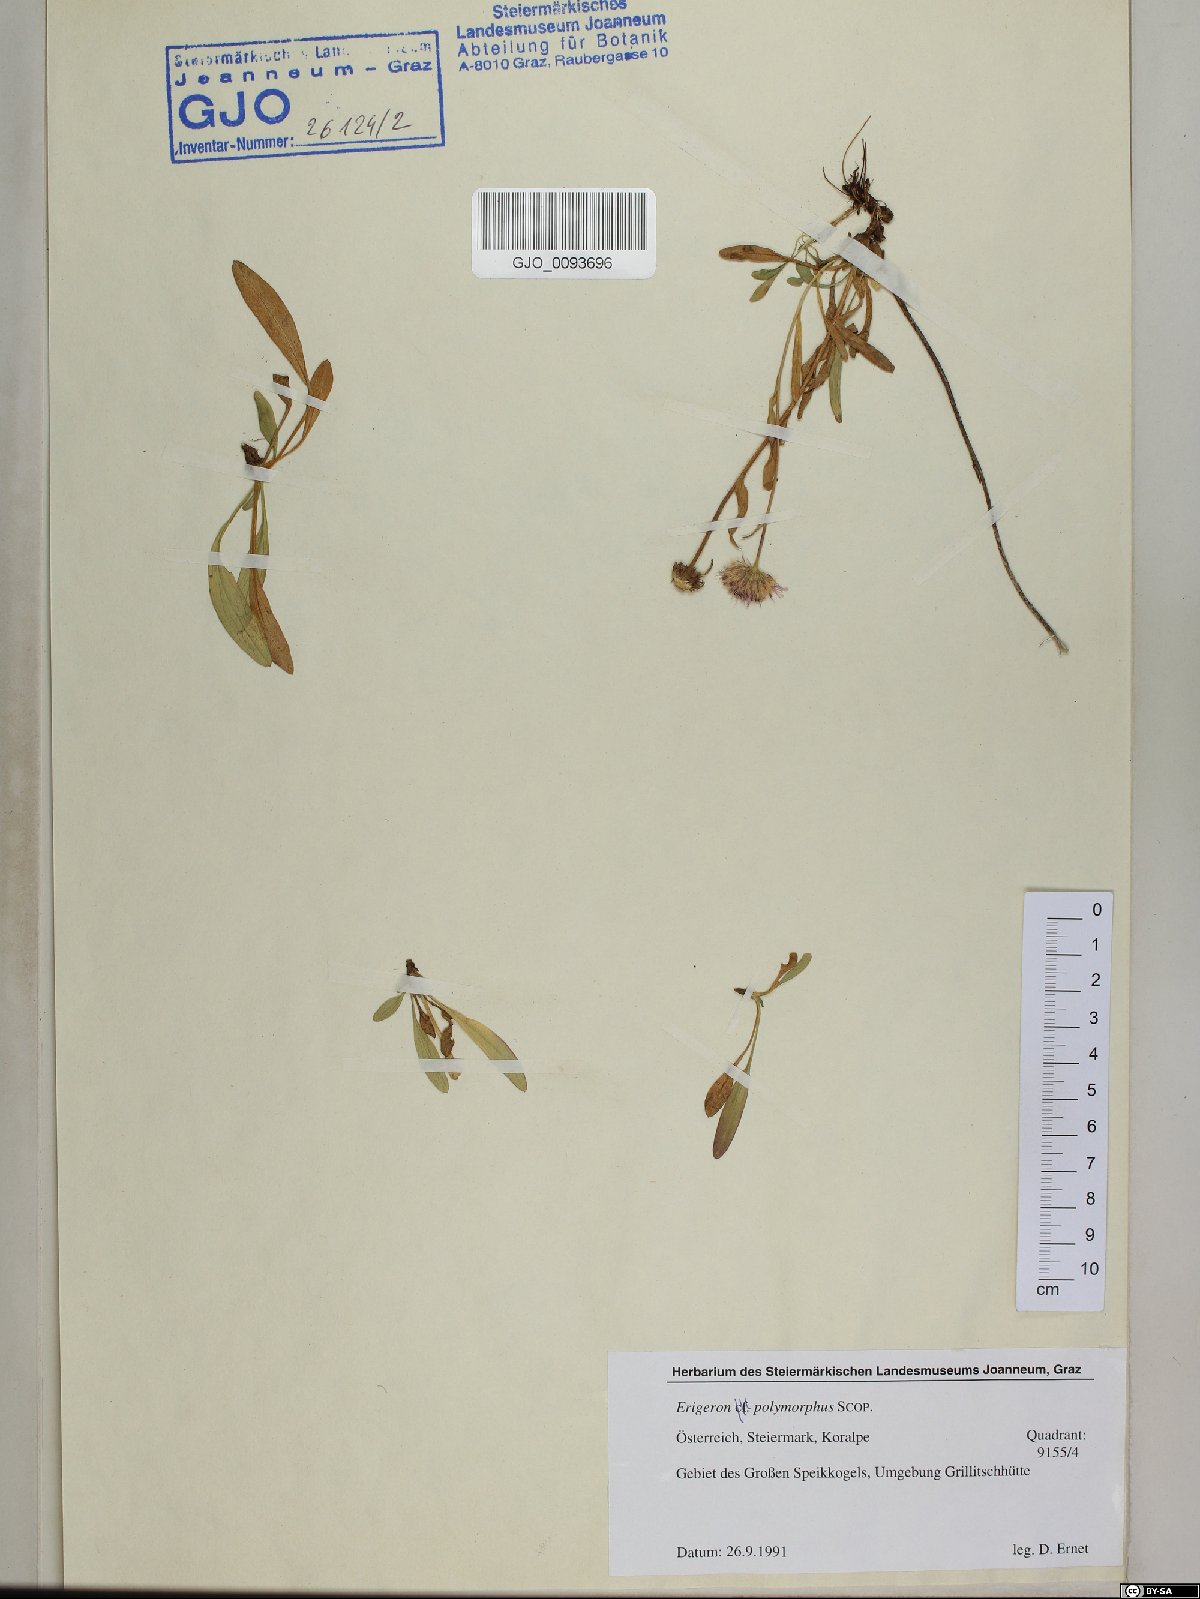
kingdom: Plantae
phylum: Tracheophyta
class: Magnoliopsida
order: Asterales
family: Asteraceae
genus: Erigeron
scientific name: Erigeron alpinus
